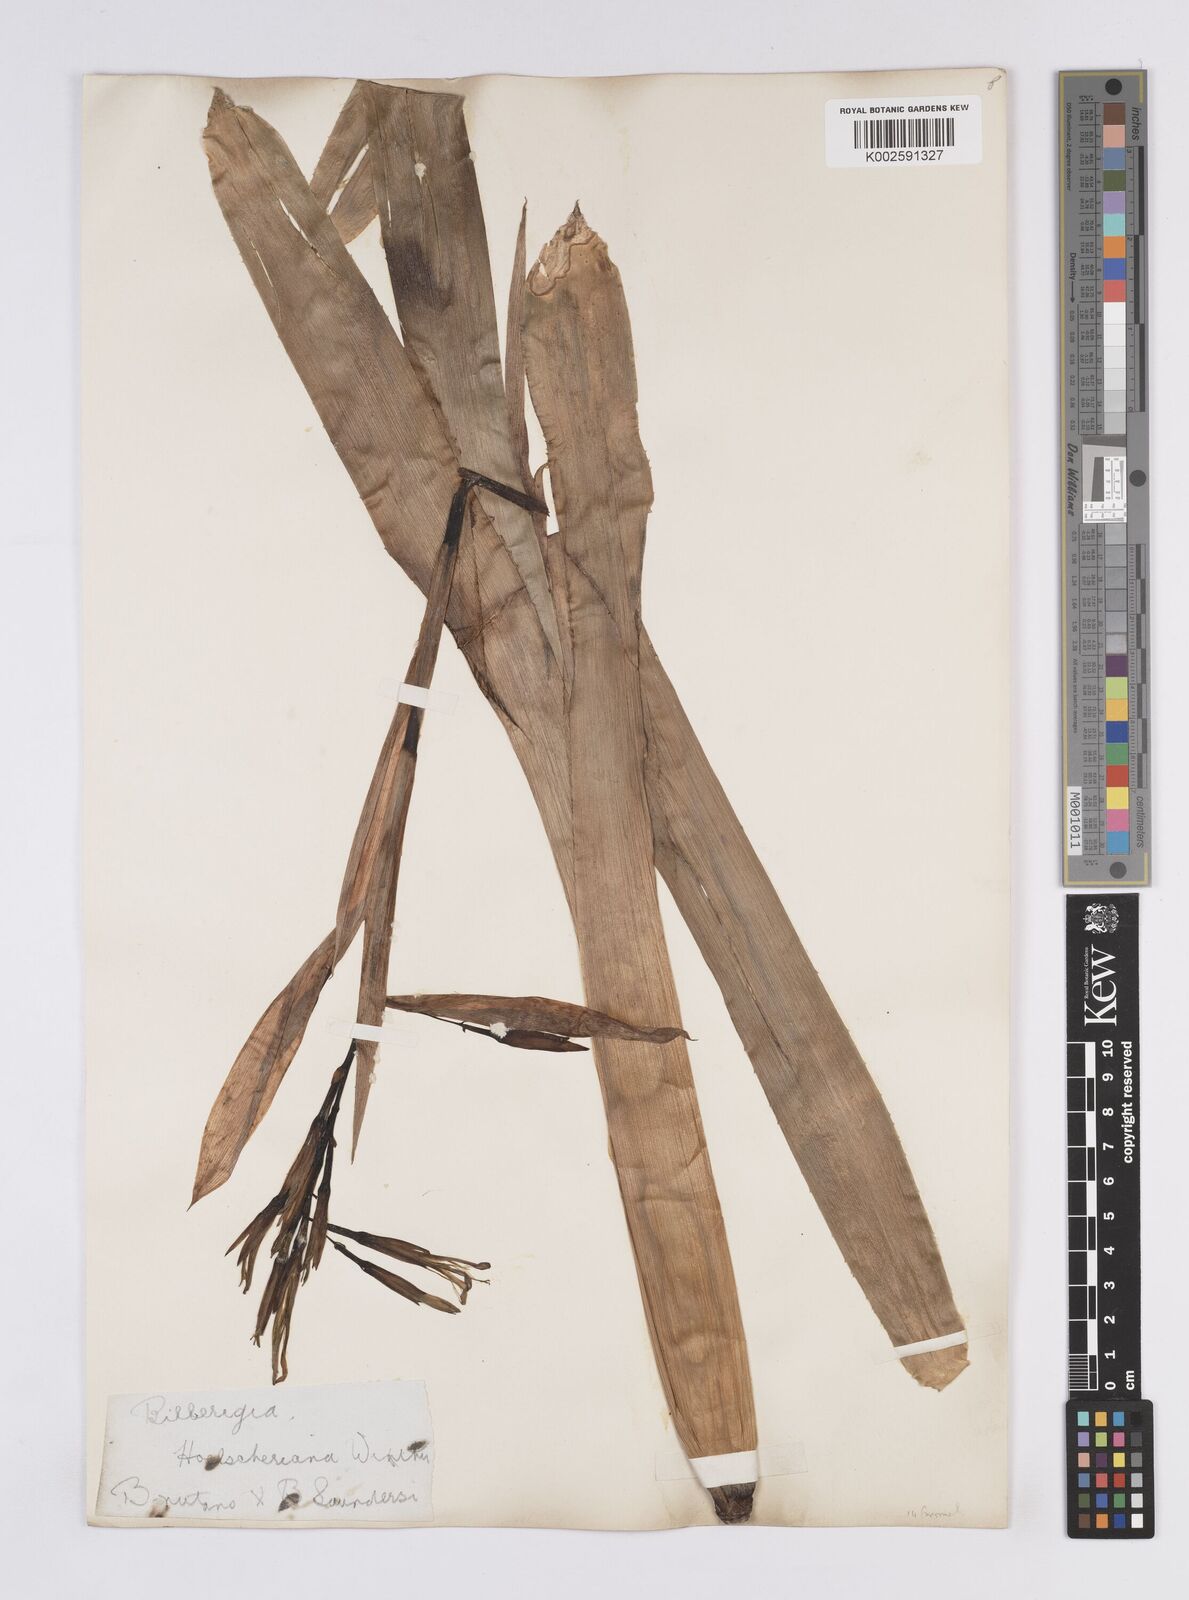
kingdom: Plantae
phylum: Tracheophyta
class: Liliopsida
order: Poales
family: Bromeliaceae
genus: Billbergia
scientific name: Billbergia
